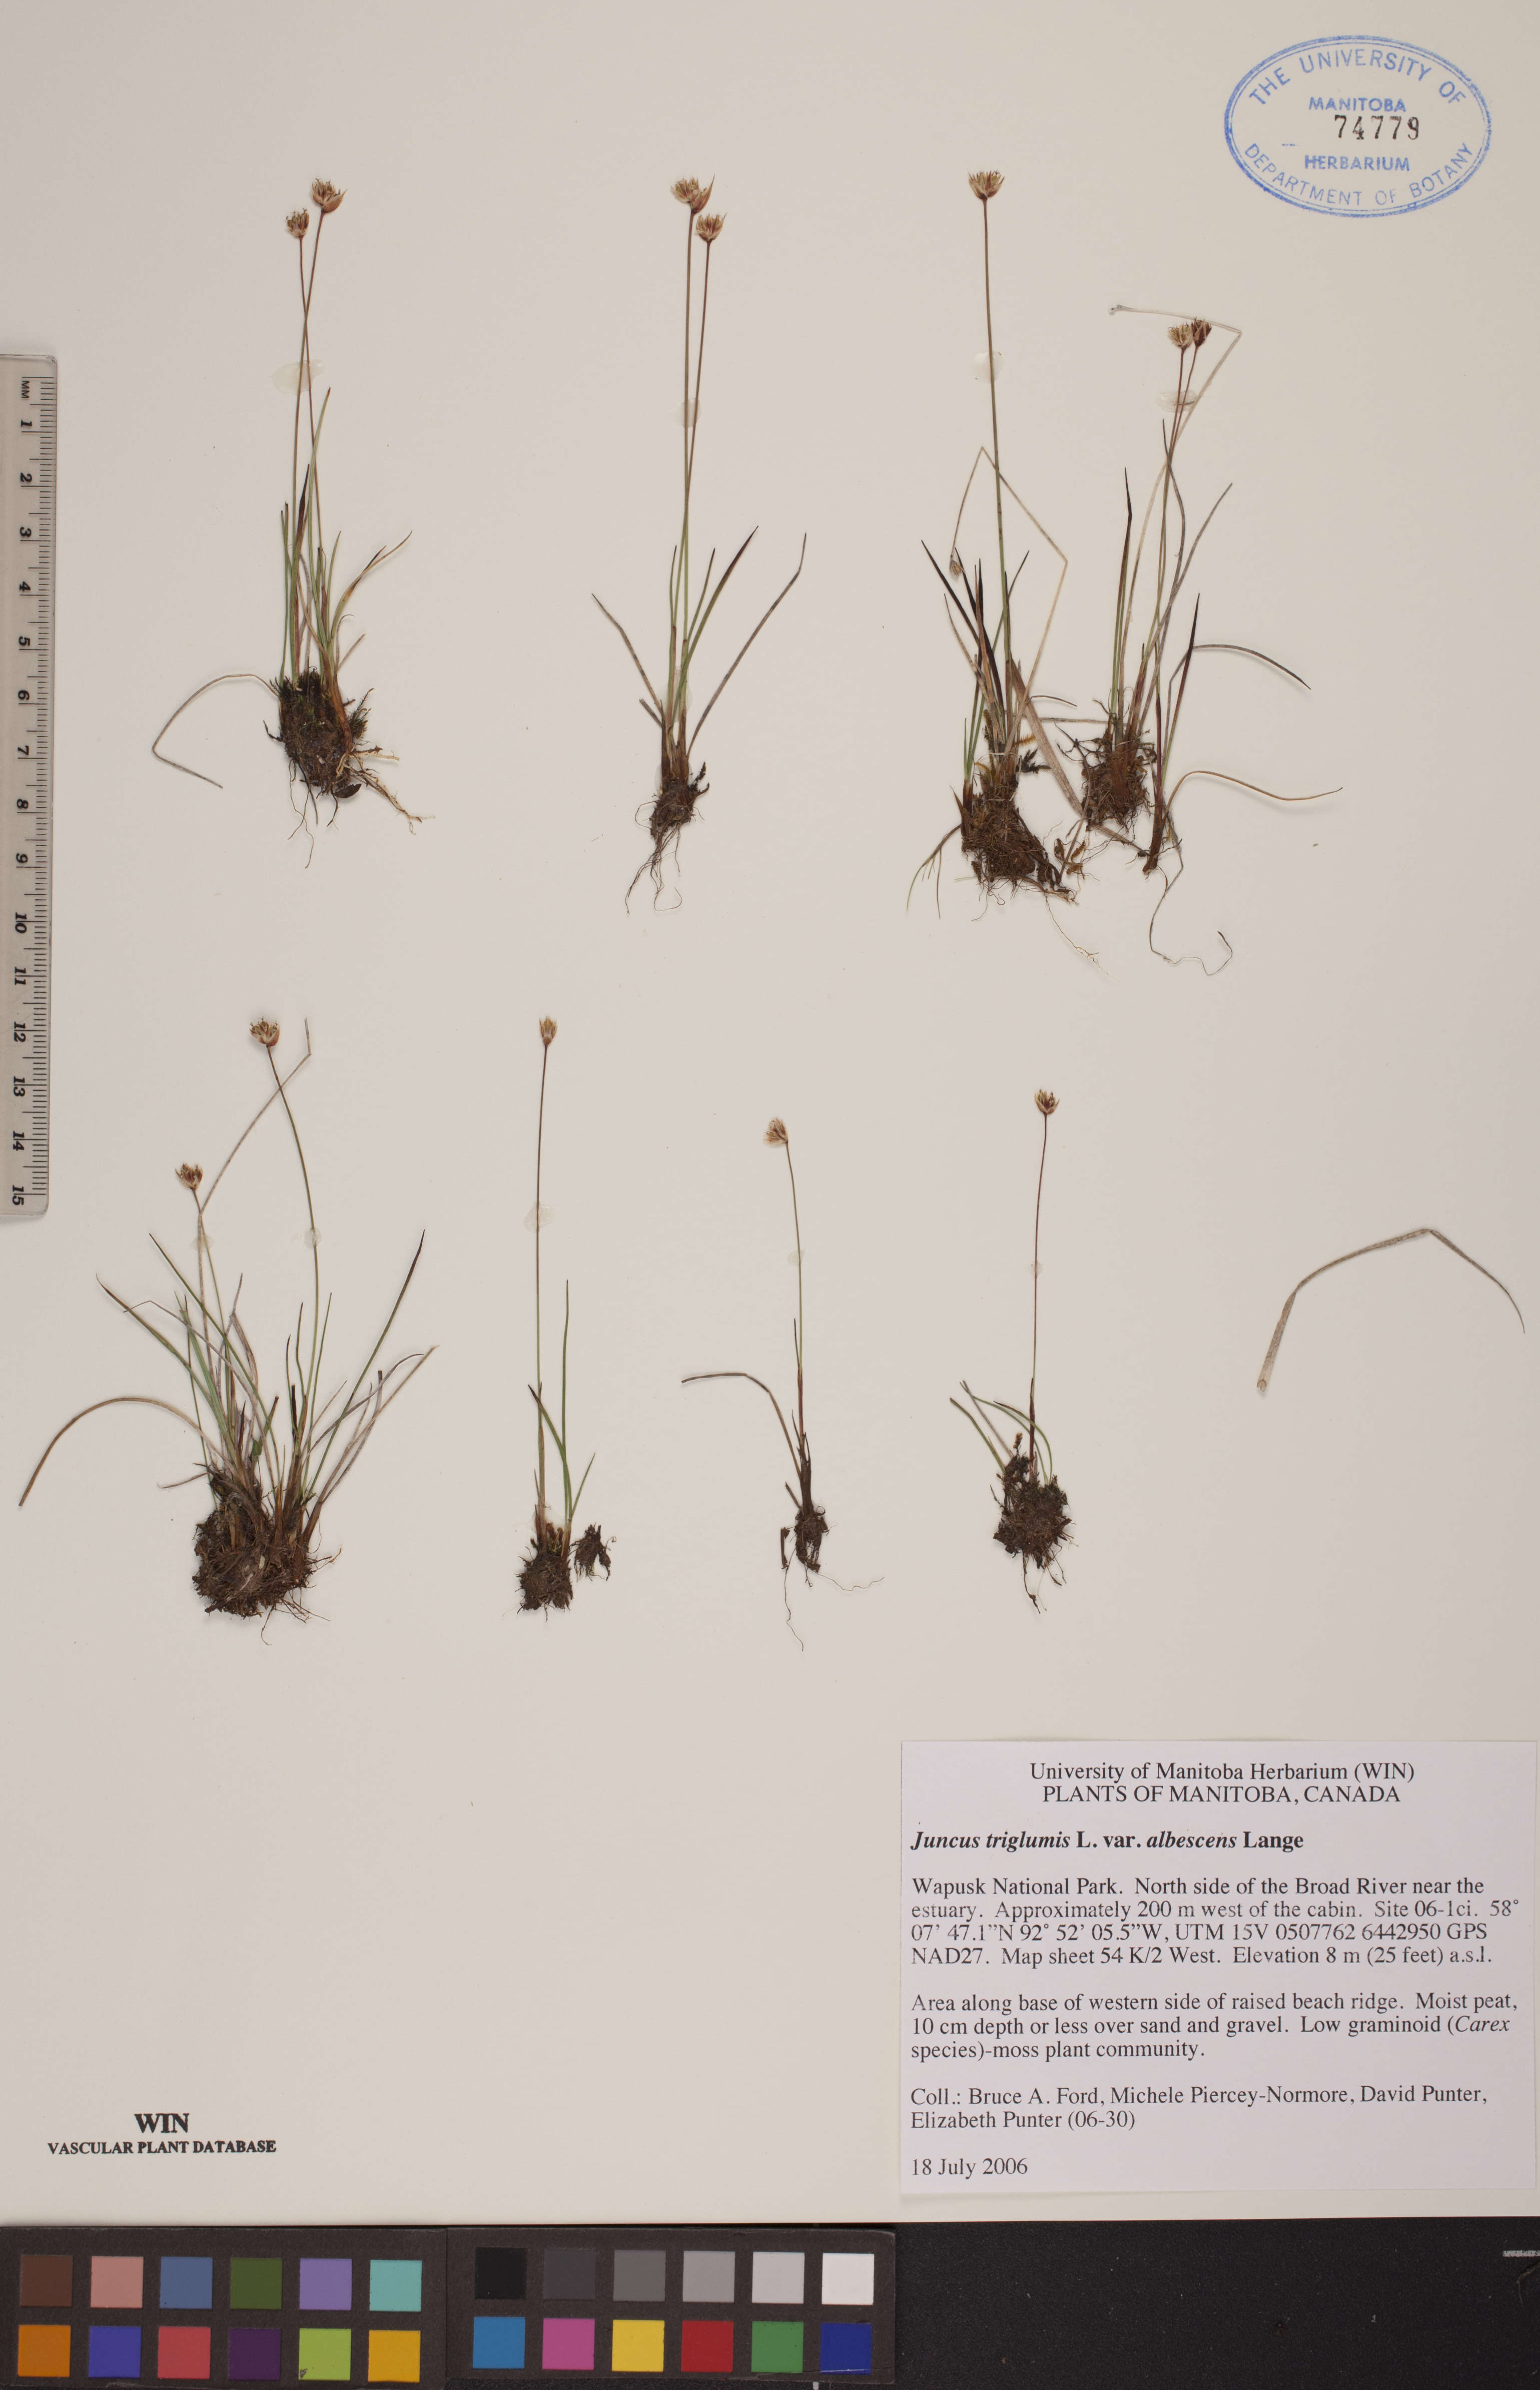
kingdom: Plantae
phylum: Tracheophyta
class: Liliopsida
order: Poales
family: Juncaceae
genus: Juncus
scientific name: Juncus albescens
